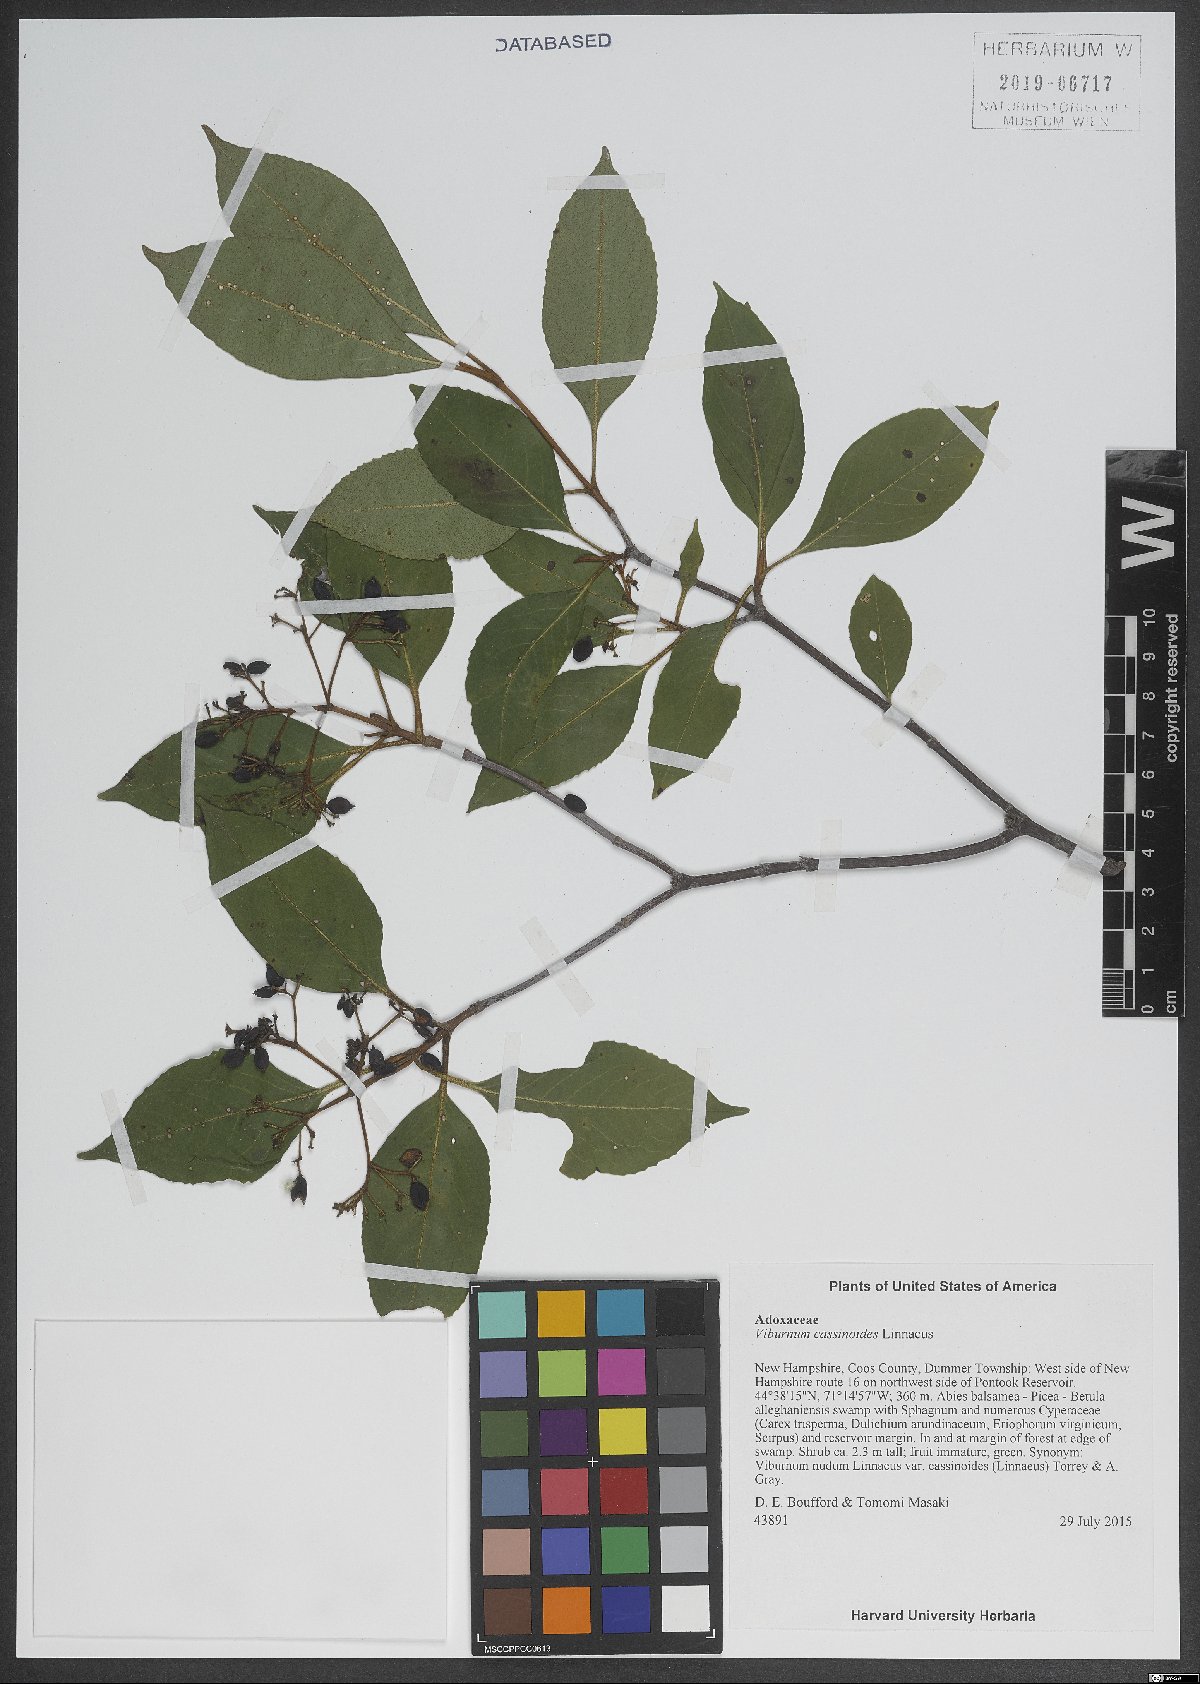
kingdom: Plantae
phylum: Tracheophyta
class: Magnoliopsida
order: Dipsacales
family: Viburnaceae
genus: Viburnum
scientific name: Viburnum cassinoides
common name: Swamp haw
